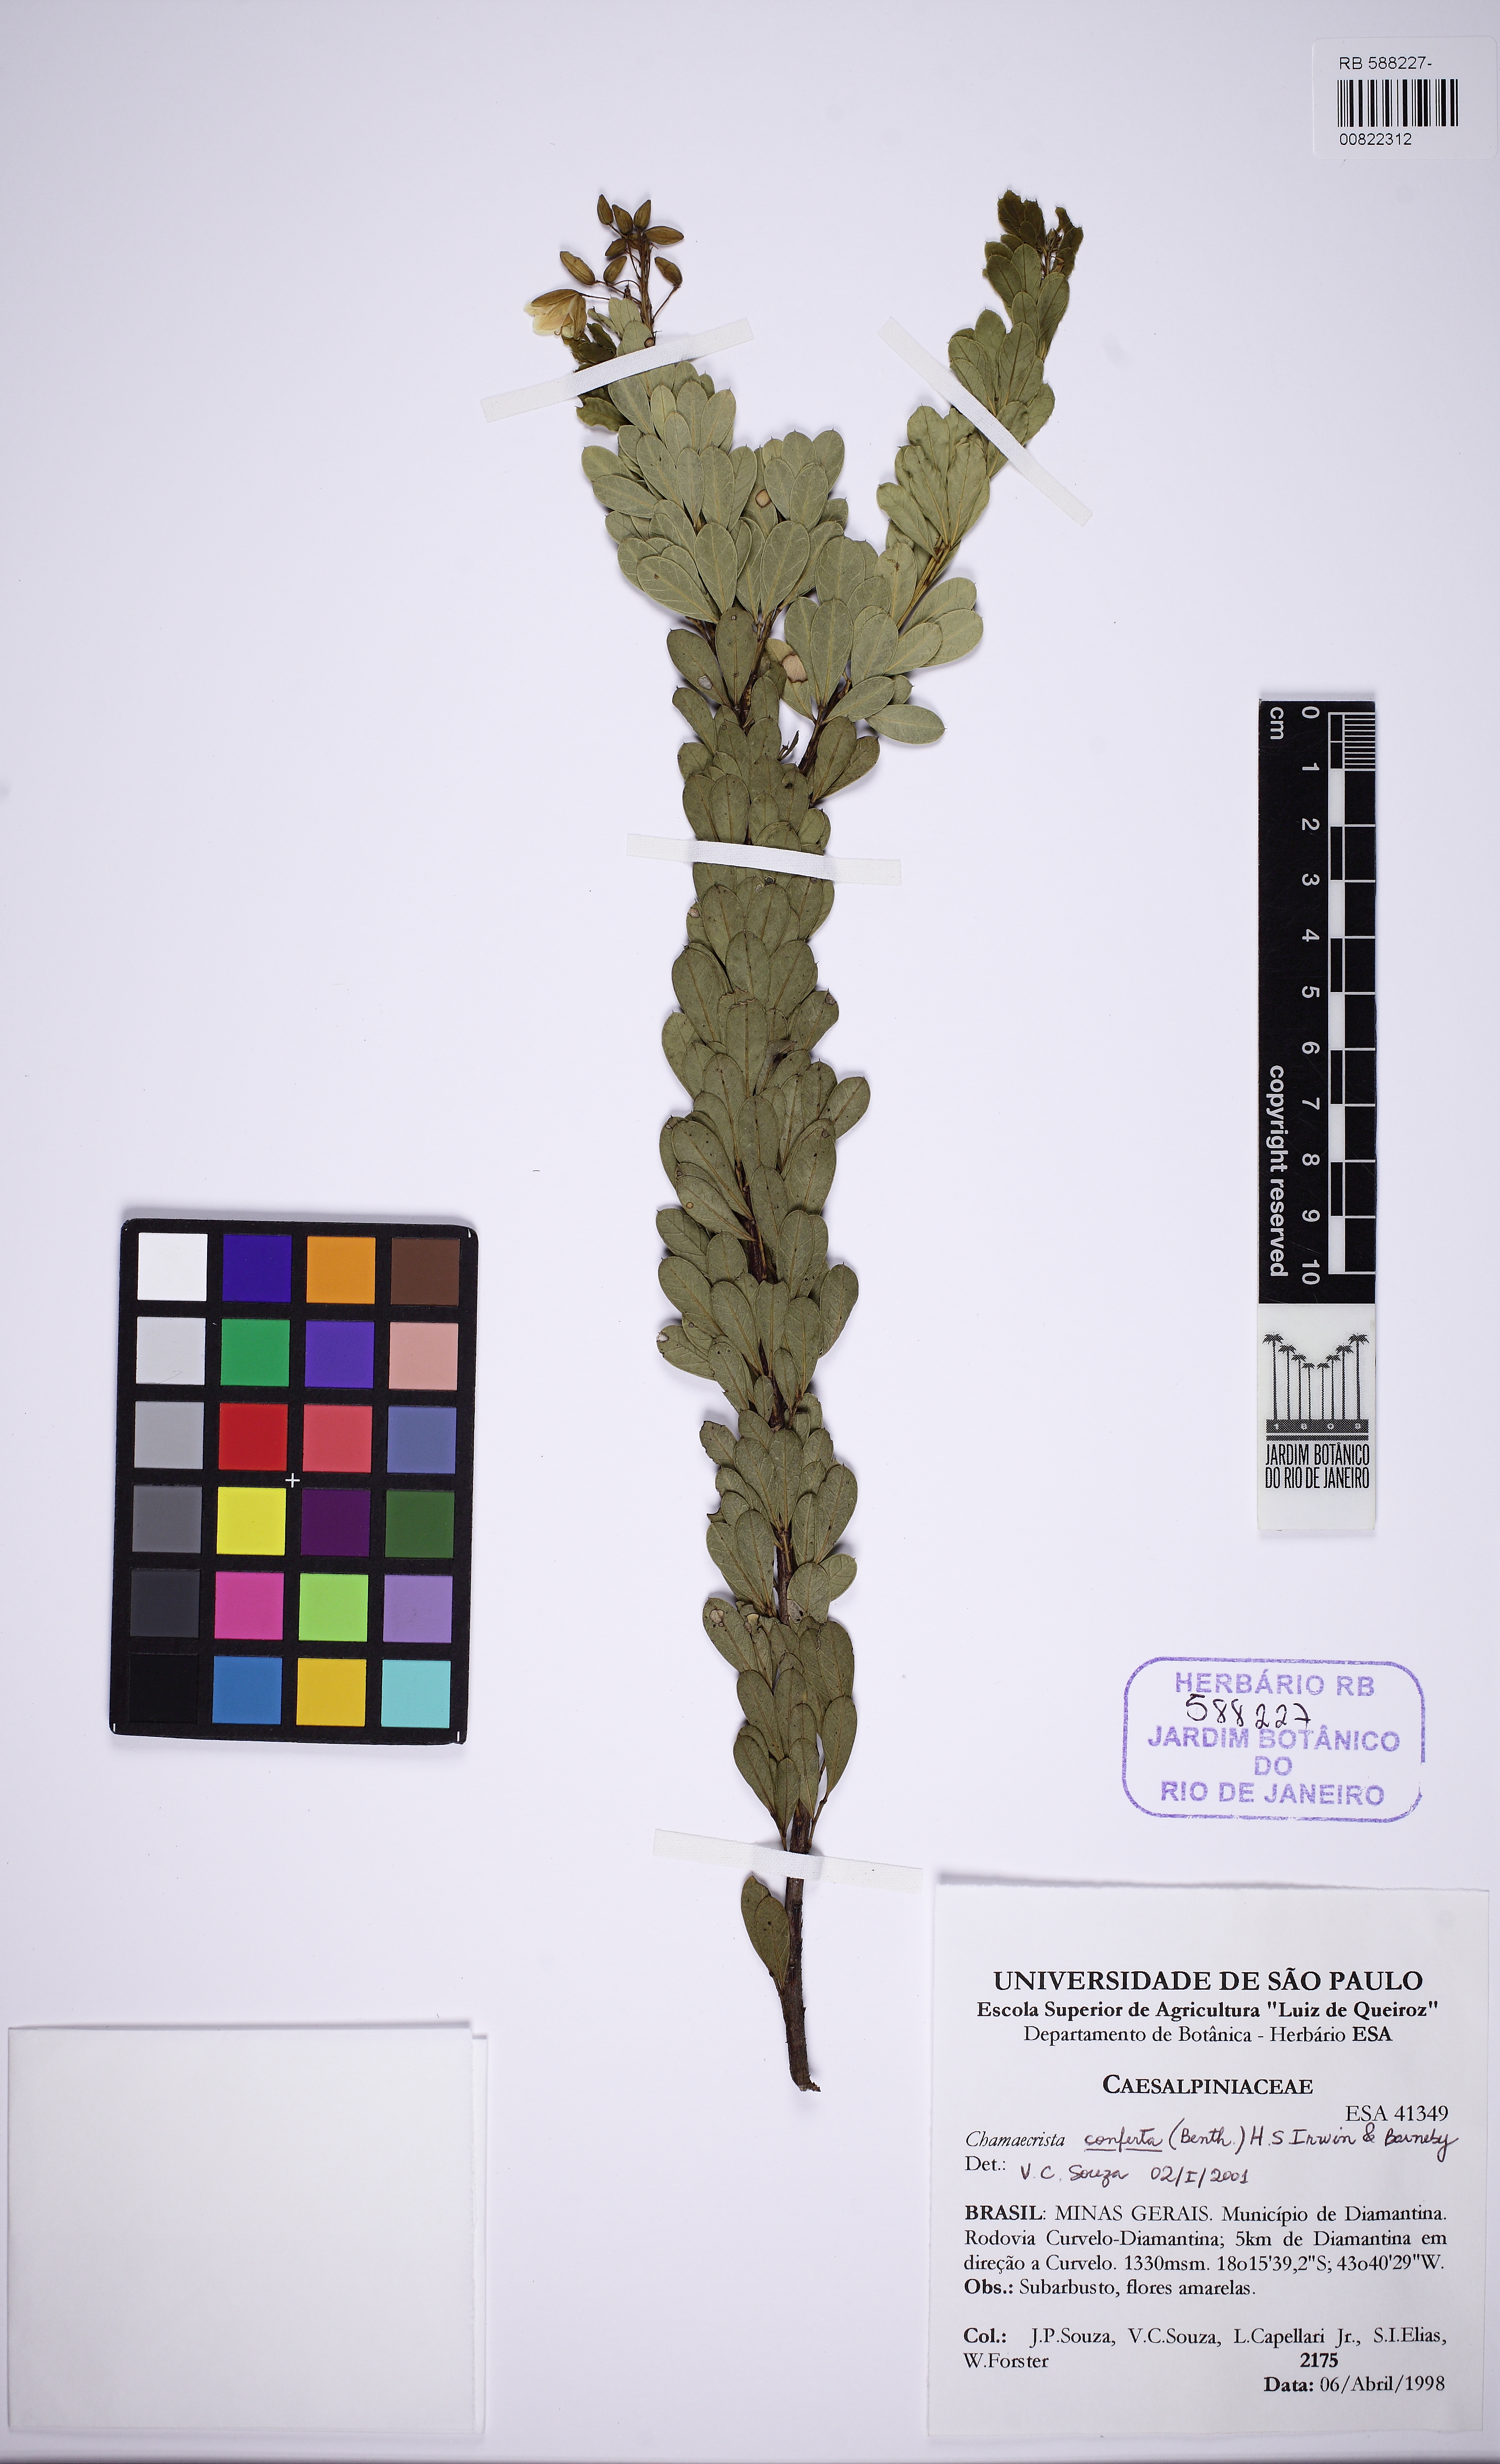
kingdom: Plantae
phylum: Tracheophyta
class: Magnoliopsida
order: Fabales
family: Fabaceae
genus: Chamaecrista
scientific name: Chamaecrista conferta
